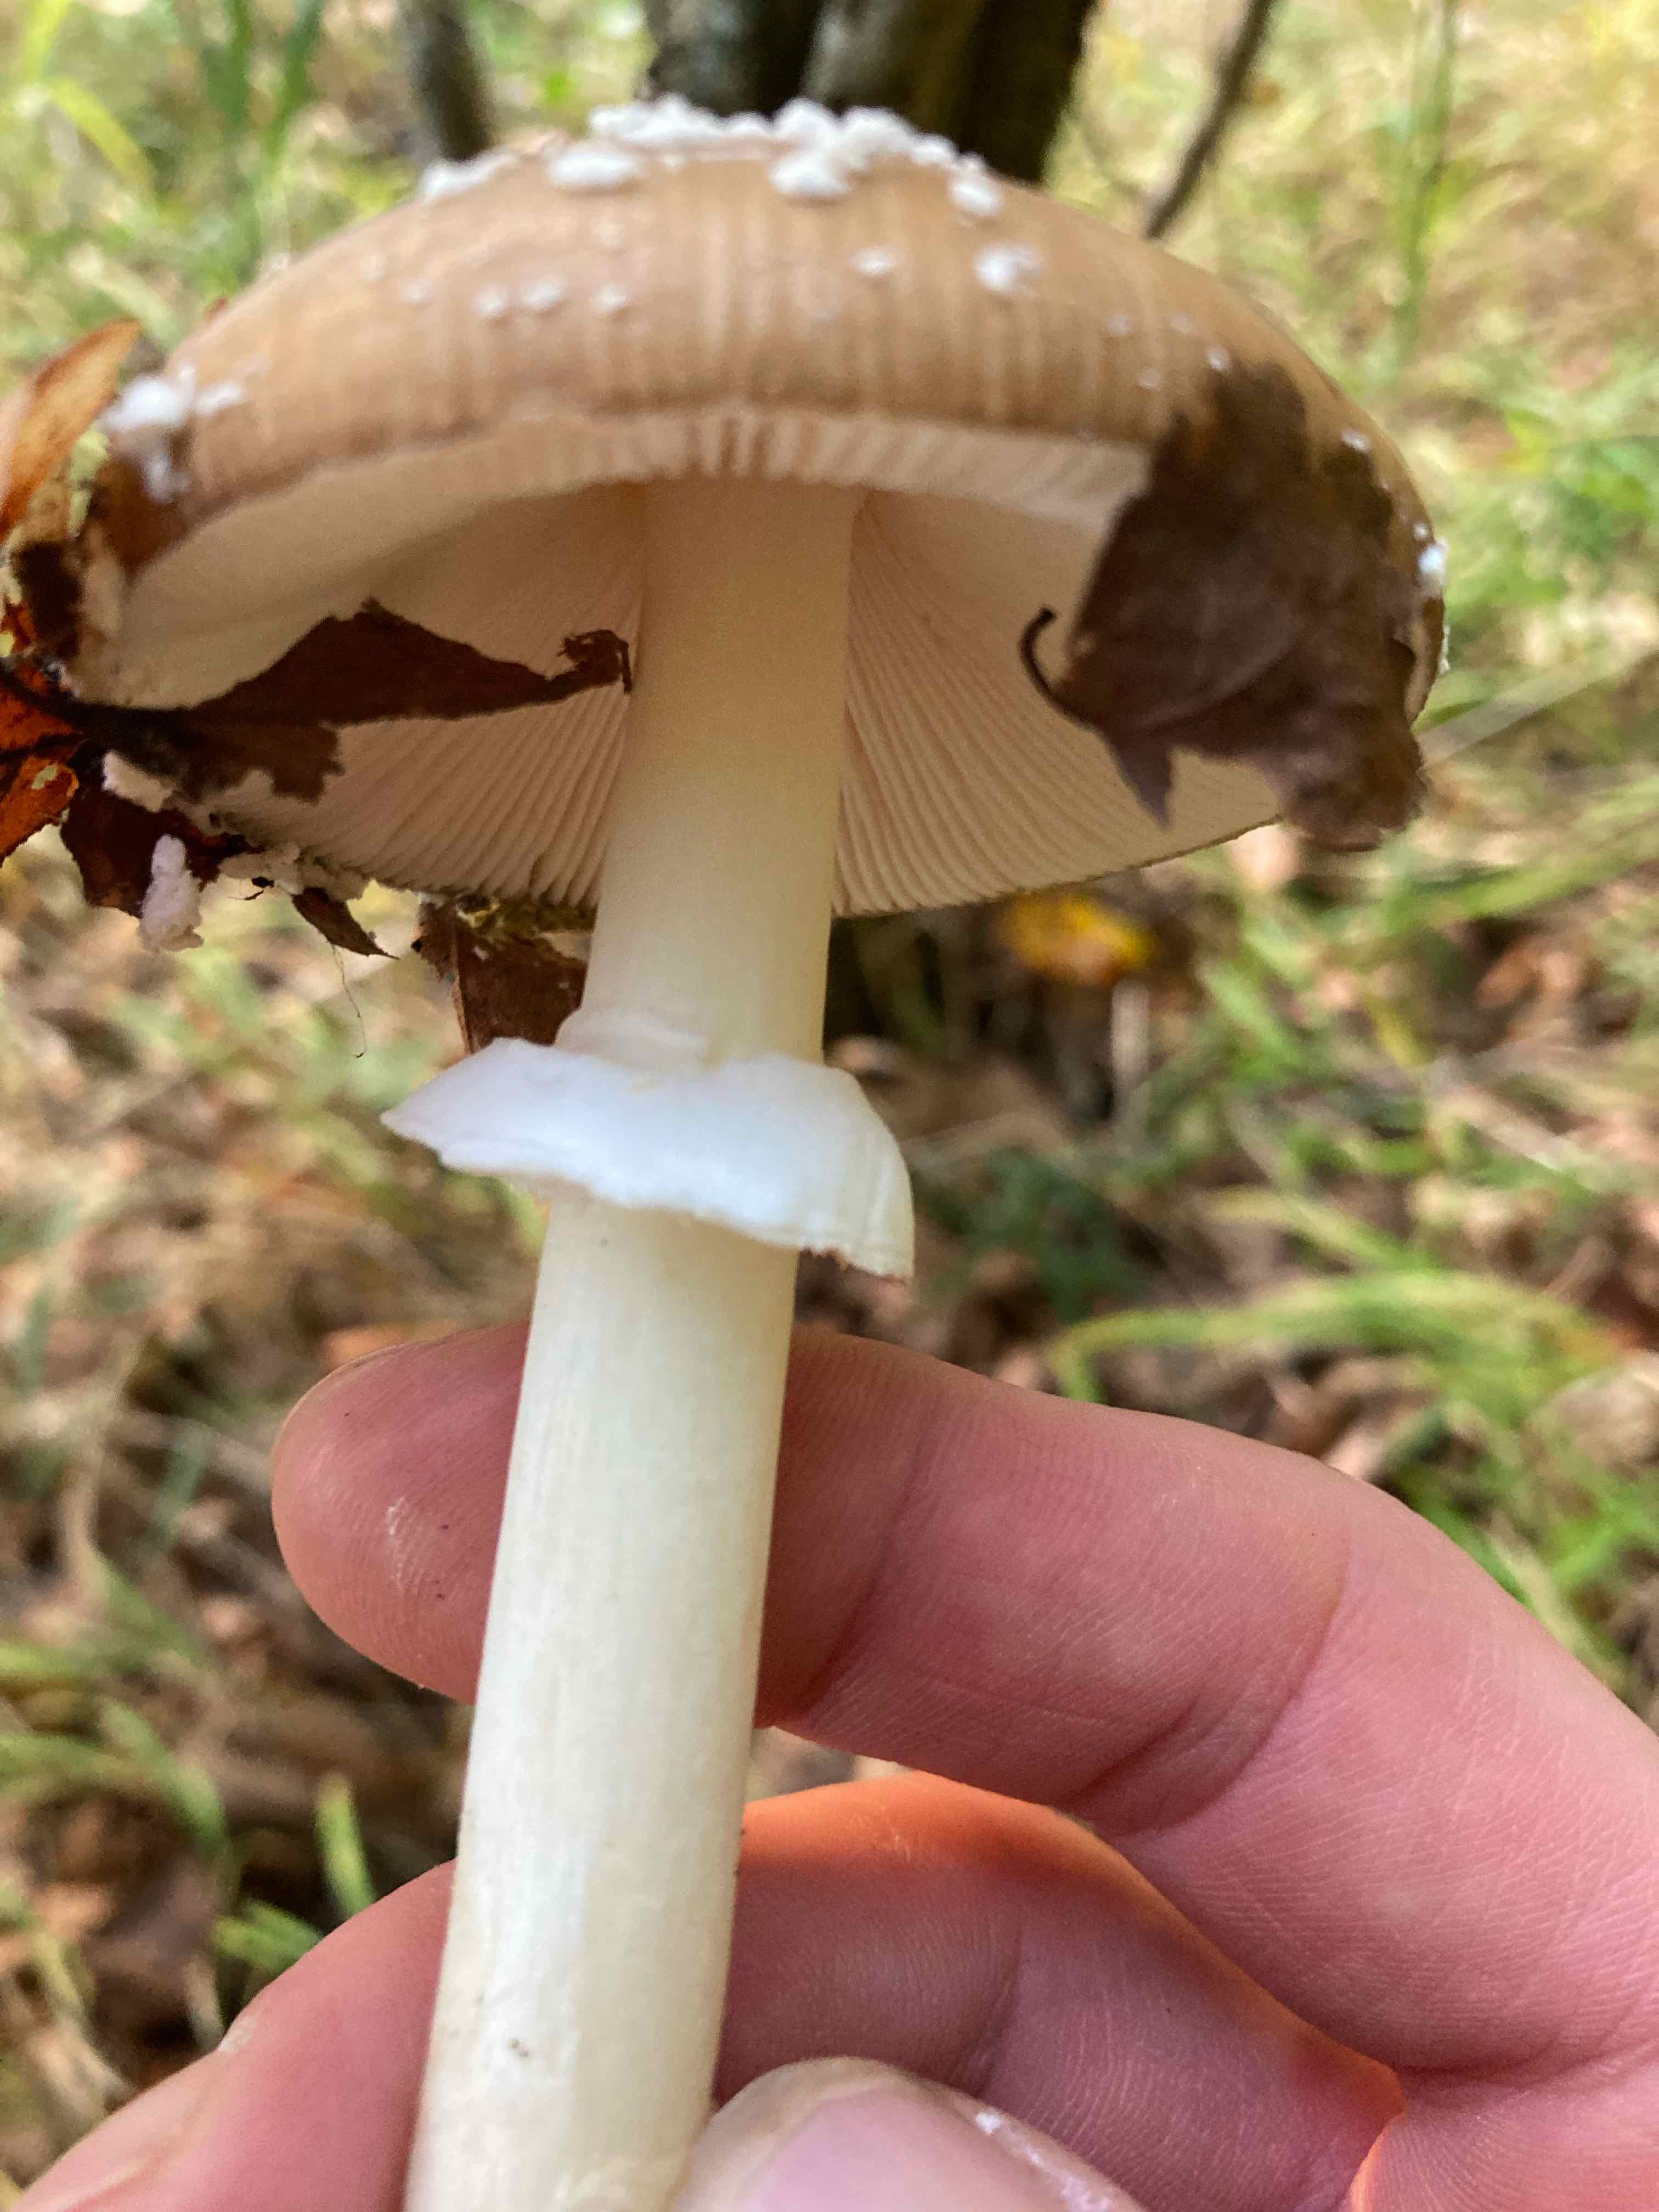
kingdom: Fungi
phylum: Basidiomycota
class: Agaricomycetes
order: Agaricales
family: Amanitaceae
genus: Amanita
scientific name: Amanita pantherina
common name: panter-fluesvamp
